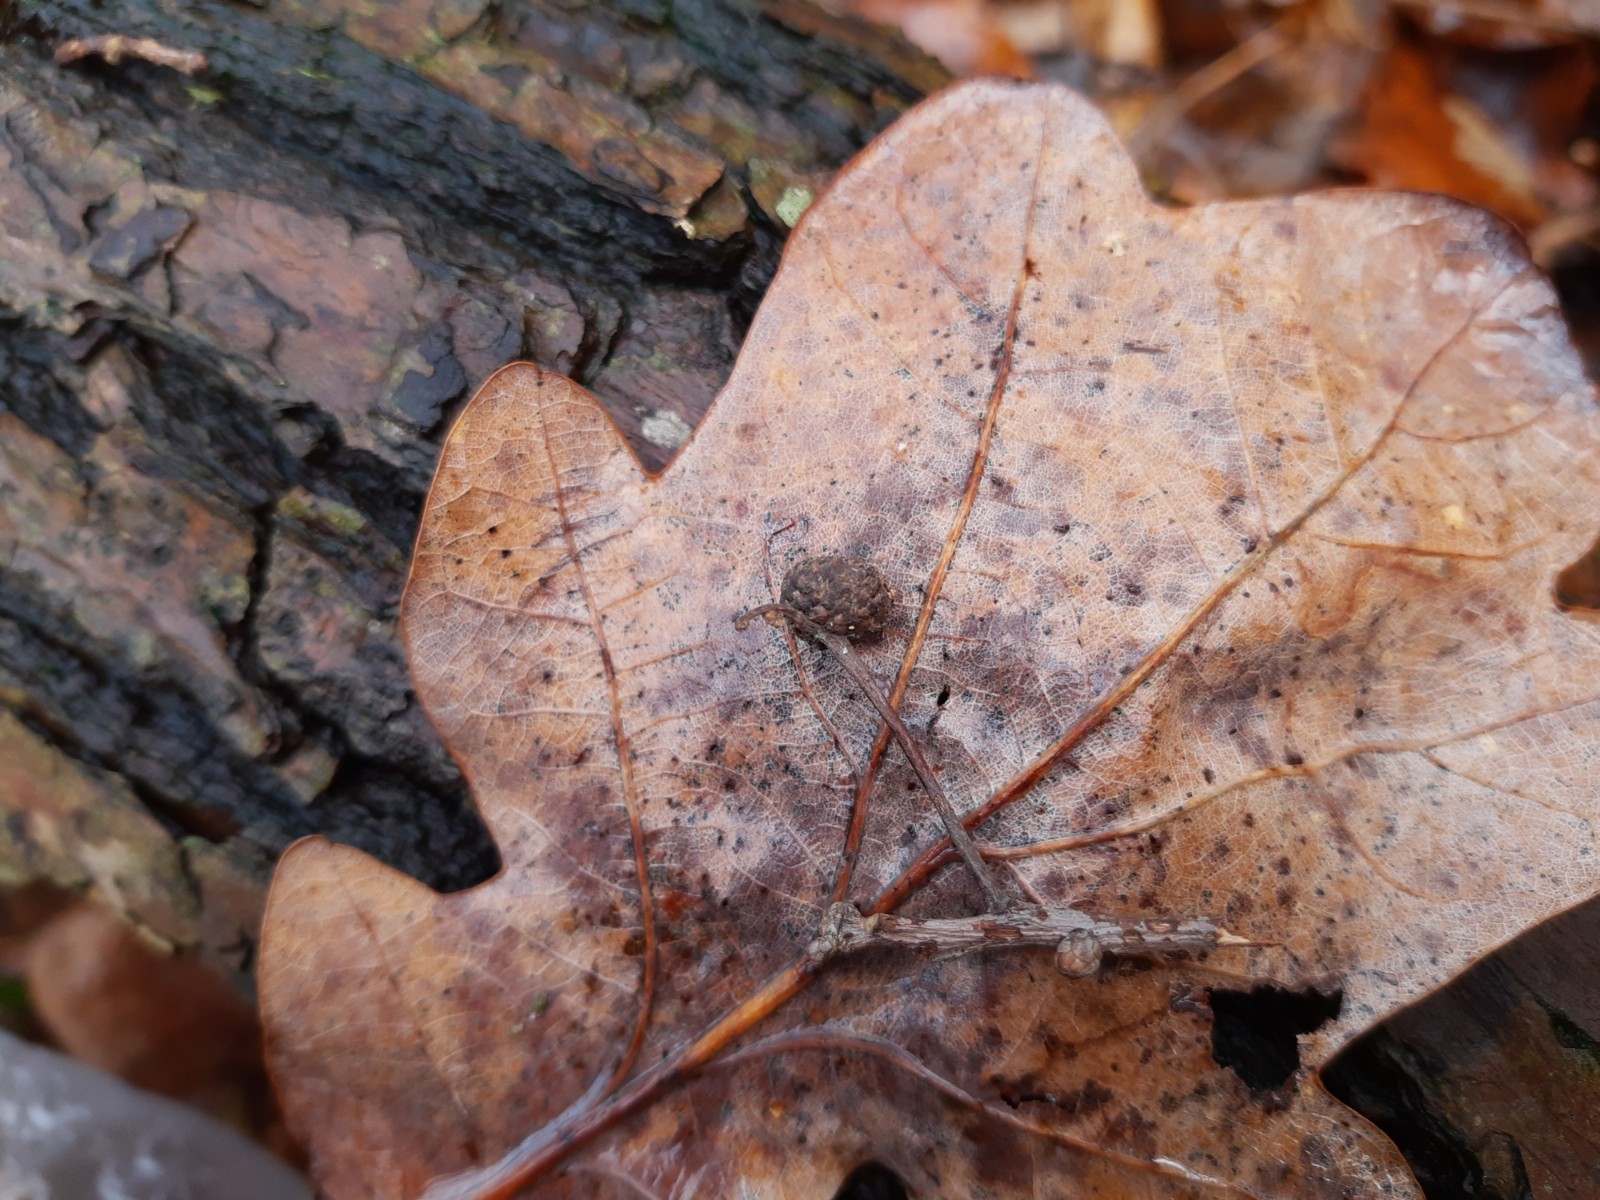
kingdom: Fungi
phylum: Basidiomycota
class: Agaricomycetes
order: Hymenochaetales
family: Hymenochaetaceae
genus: Fuscoporia
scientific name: Fuscoporia ferrea
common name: skorpe-ildporesvamp
